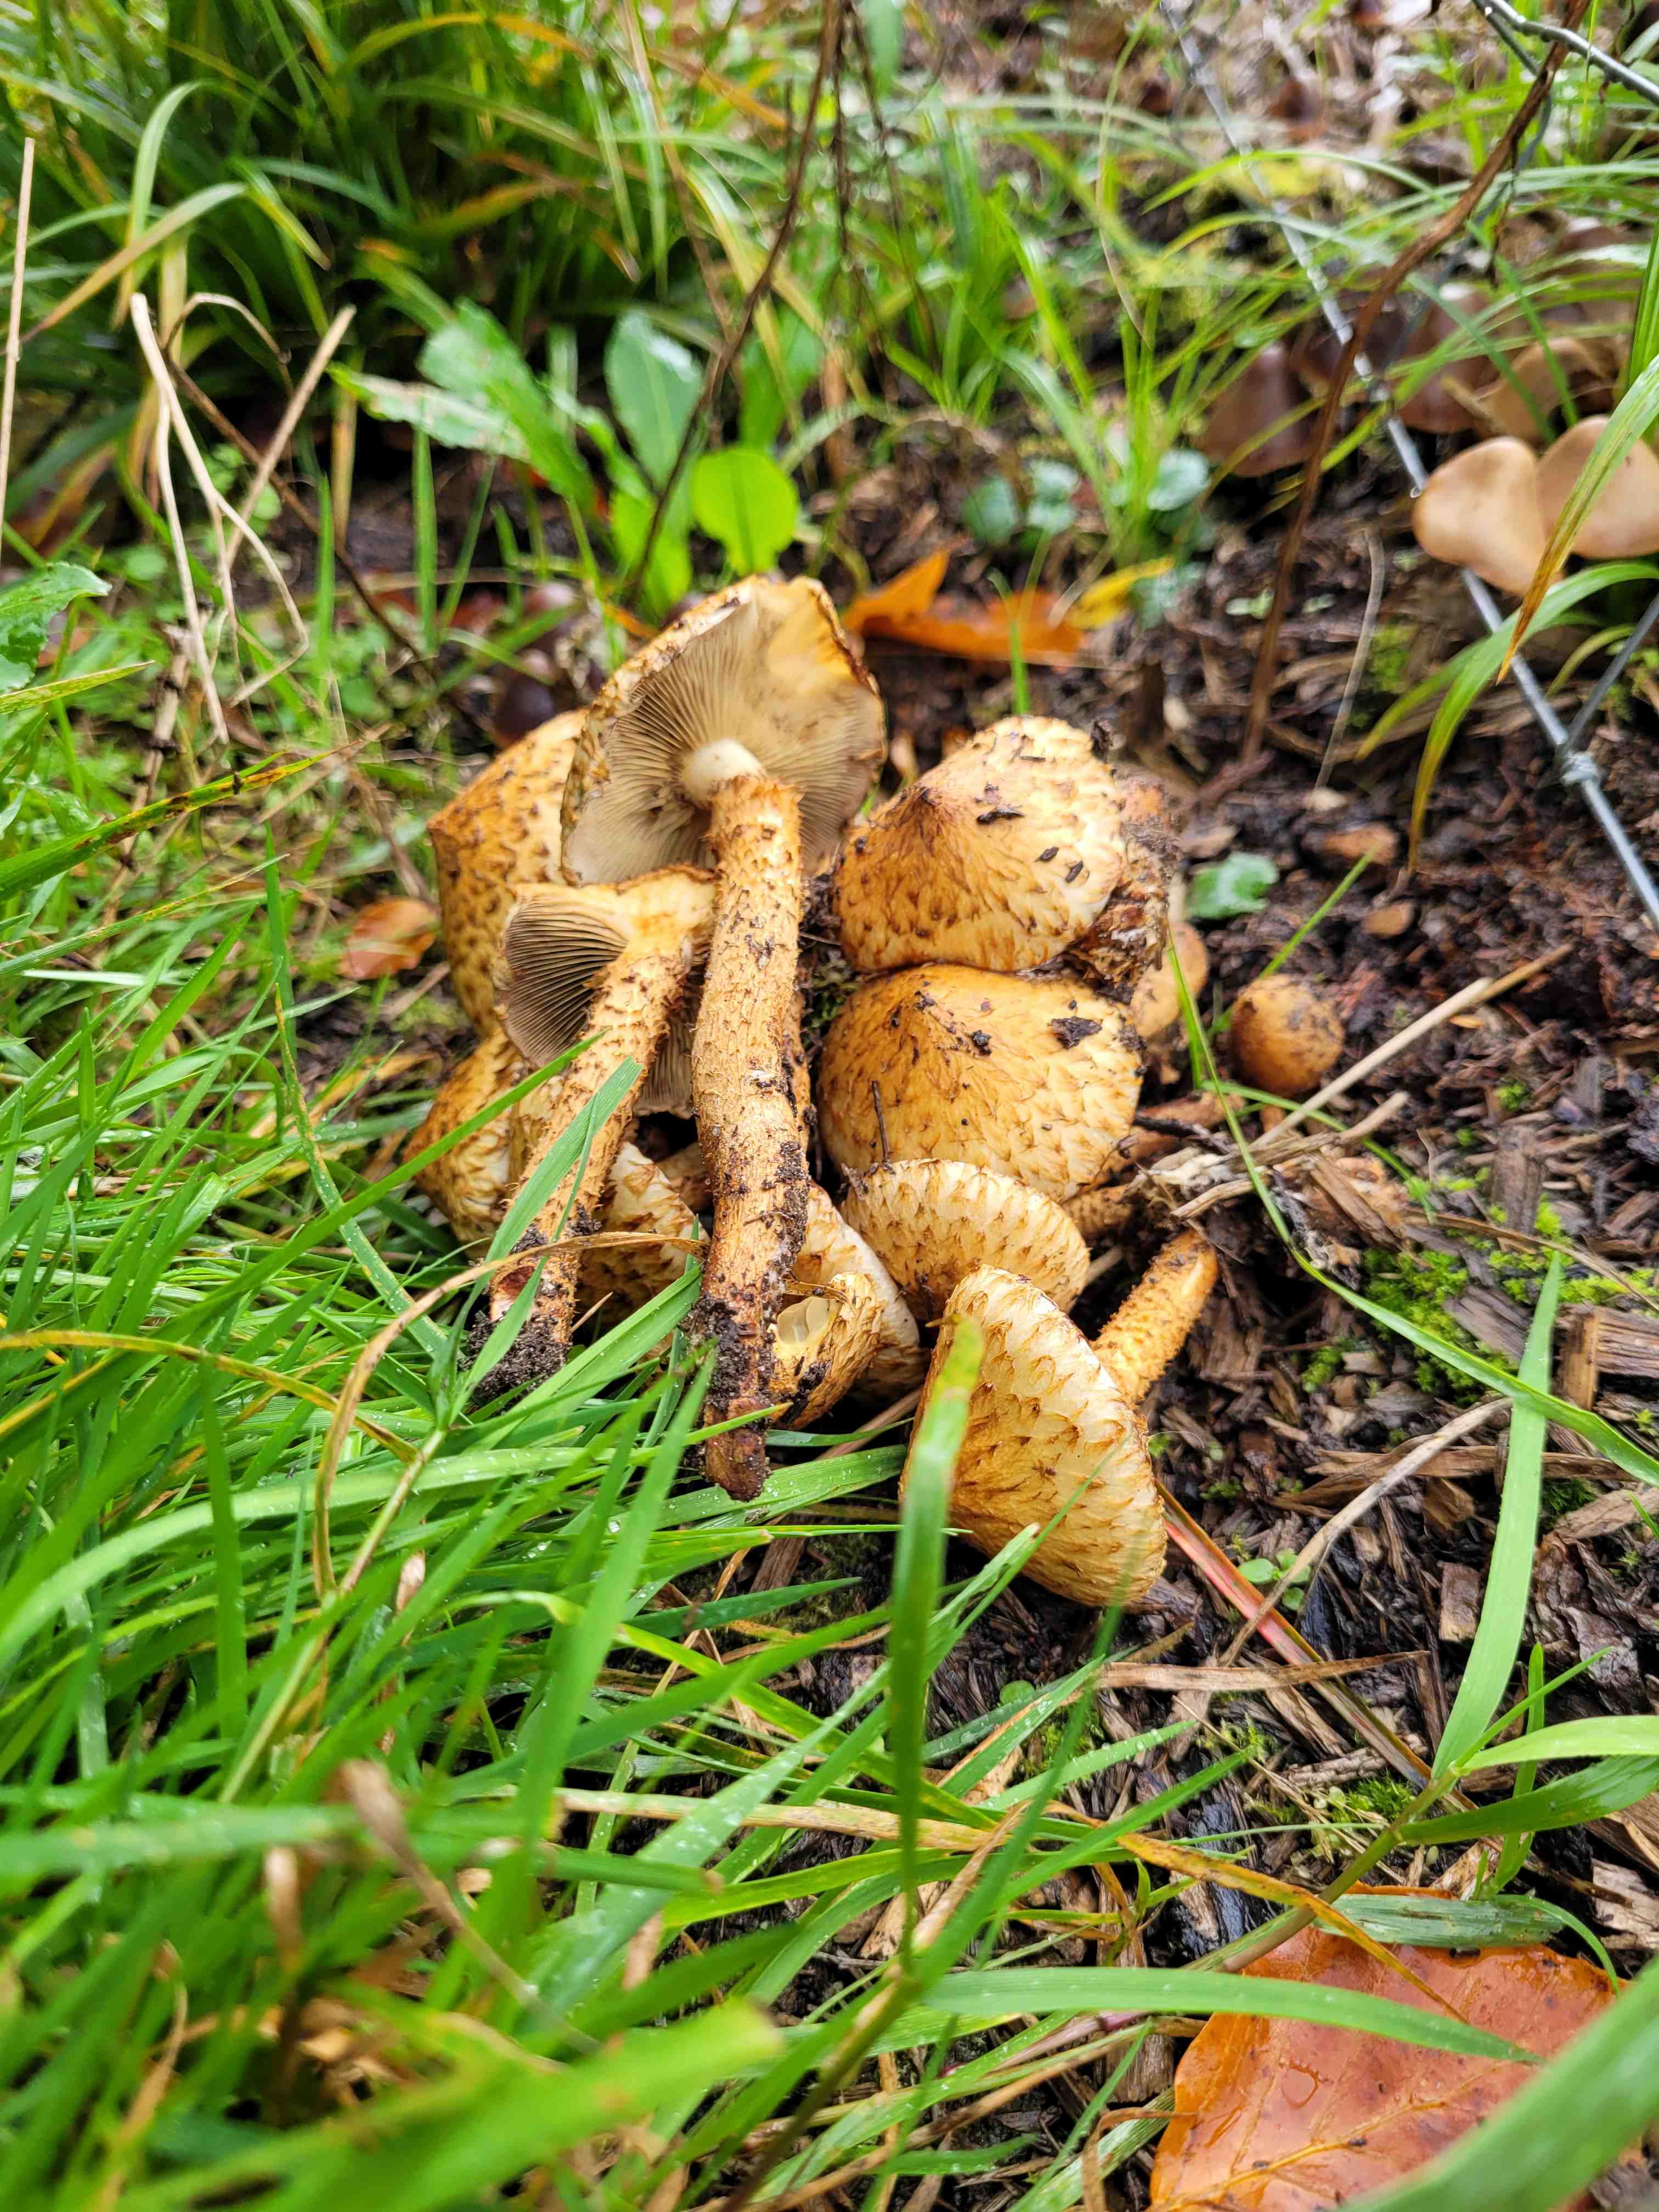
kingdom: Fungi
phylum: Basidiomycota
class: Agaricomycetes
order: Agaricales
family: Strophariaceae
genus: Pholiota
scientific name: Pholiota squarrosa
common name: krumskællet skælhat
